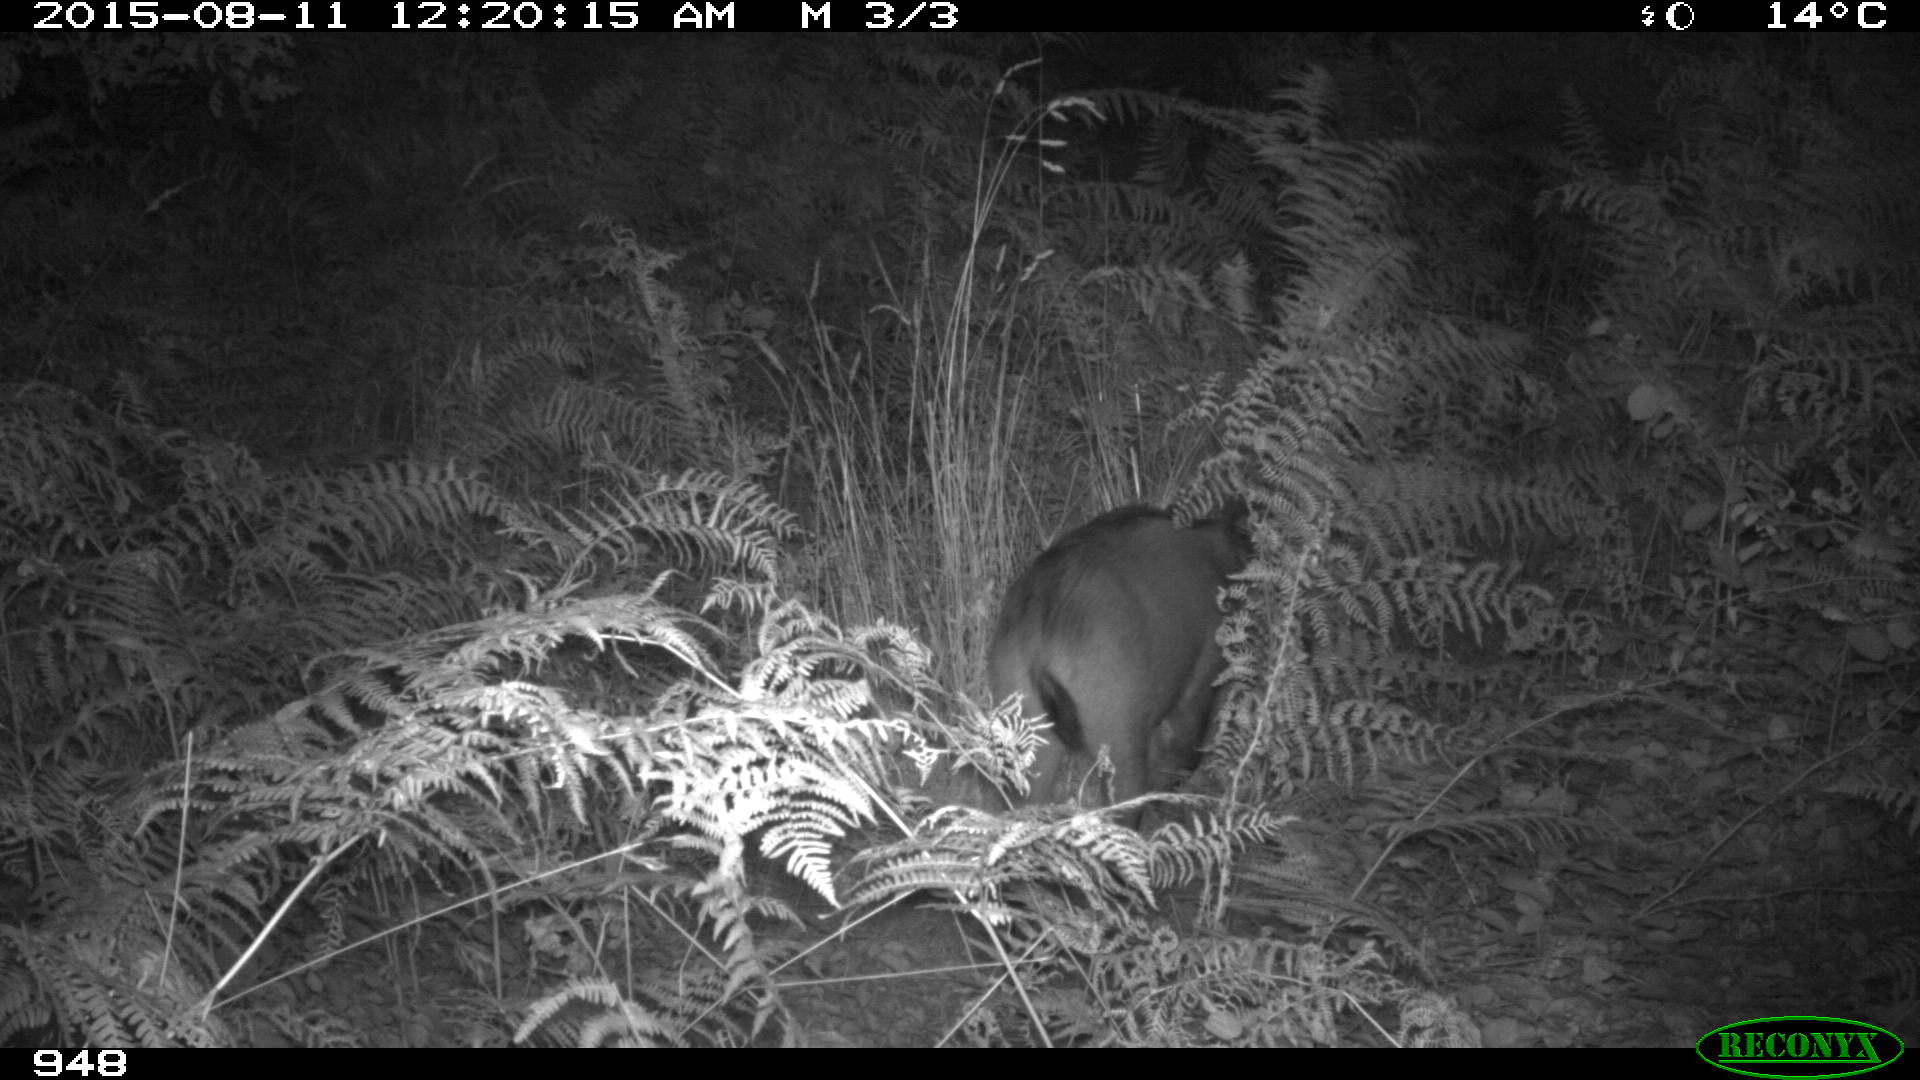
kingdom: Animalia
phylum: Chordata
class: Mammalia
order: Artiodactyla
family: Suidae
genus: Sus
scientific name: Sus scrofa
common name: Wild boar
